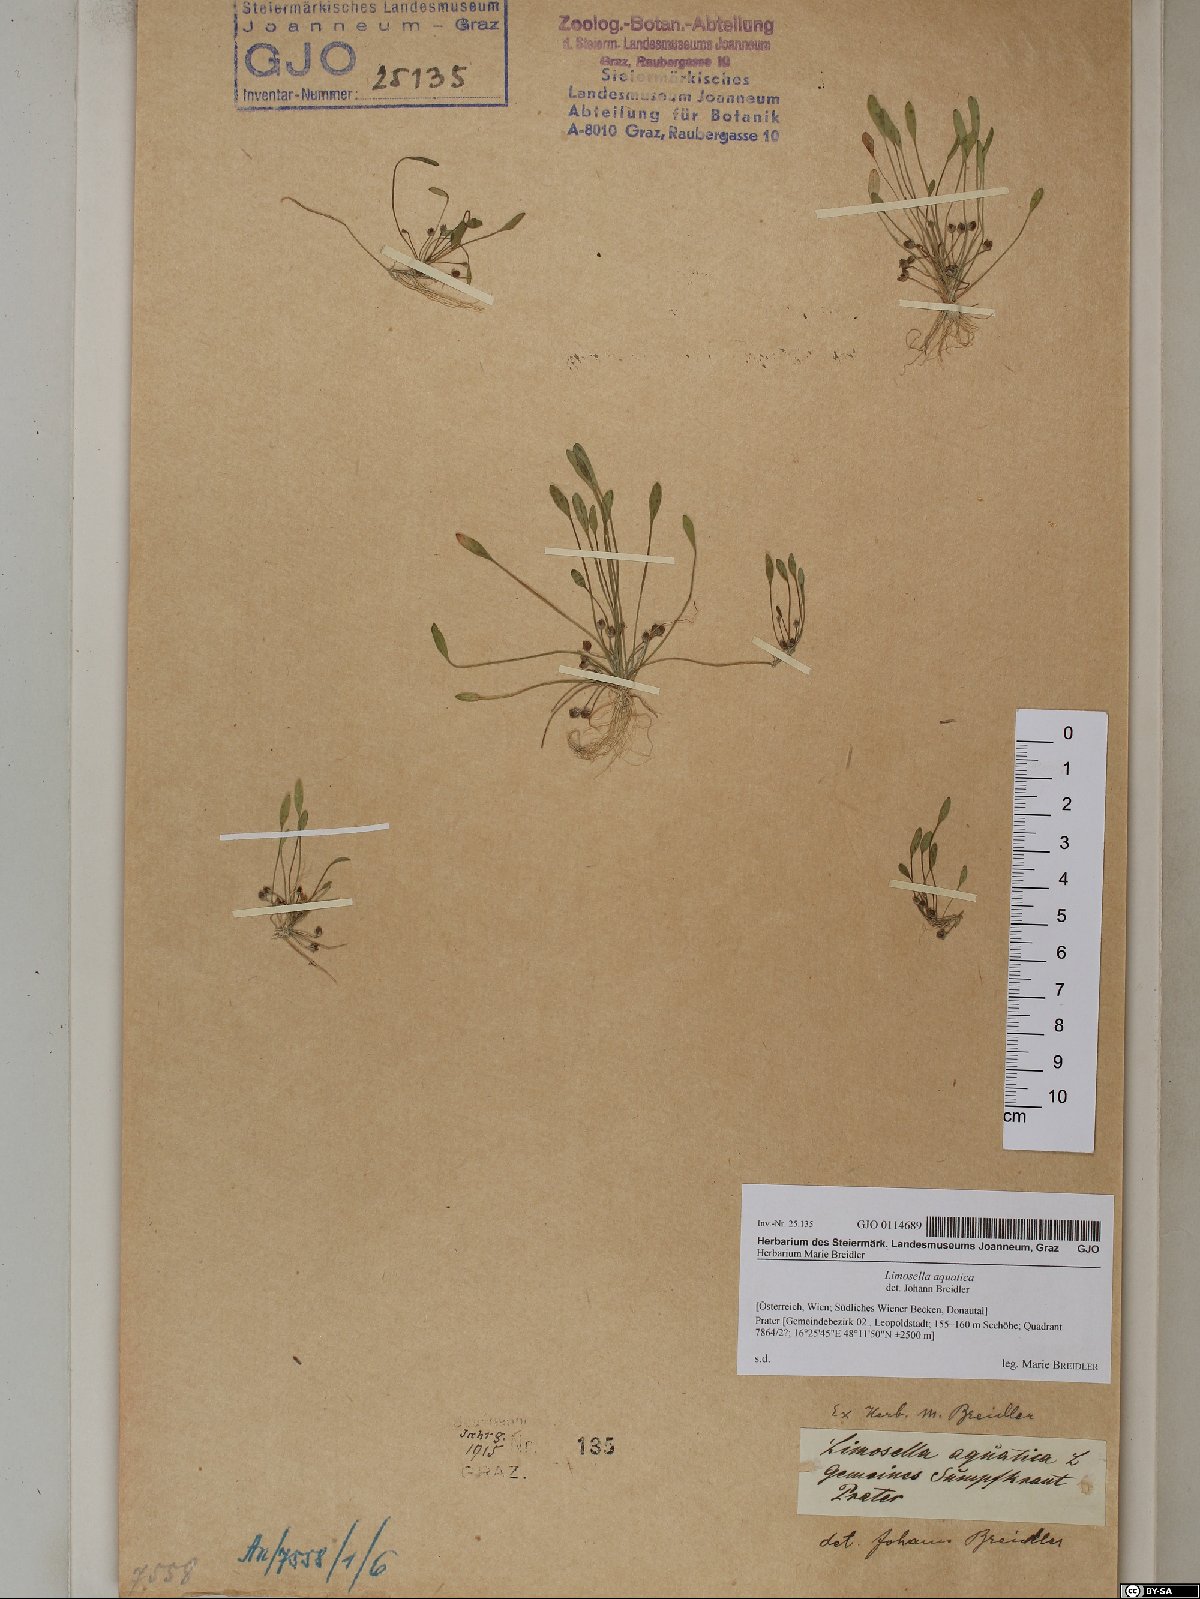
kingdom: Plantae
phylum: Tracheophyta
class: Magnoliopsida
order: Lamiales
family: Scrophulariaceae
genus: Limosella
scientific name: Limosella aquatica
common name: Mudwort
